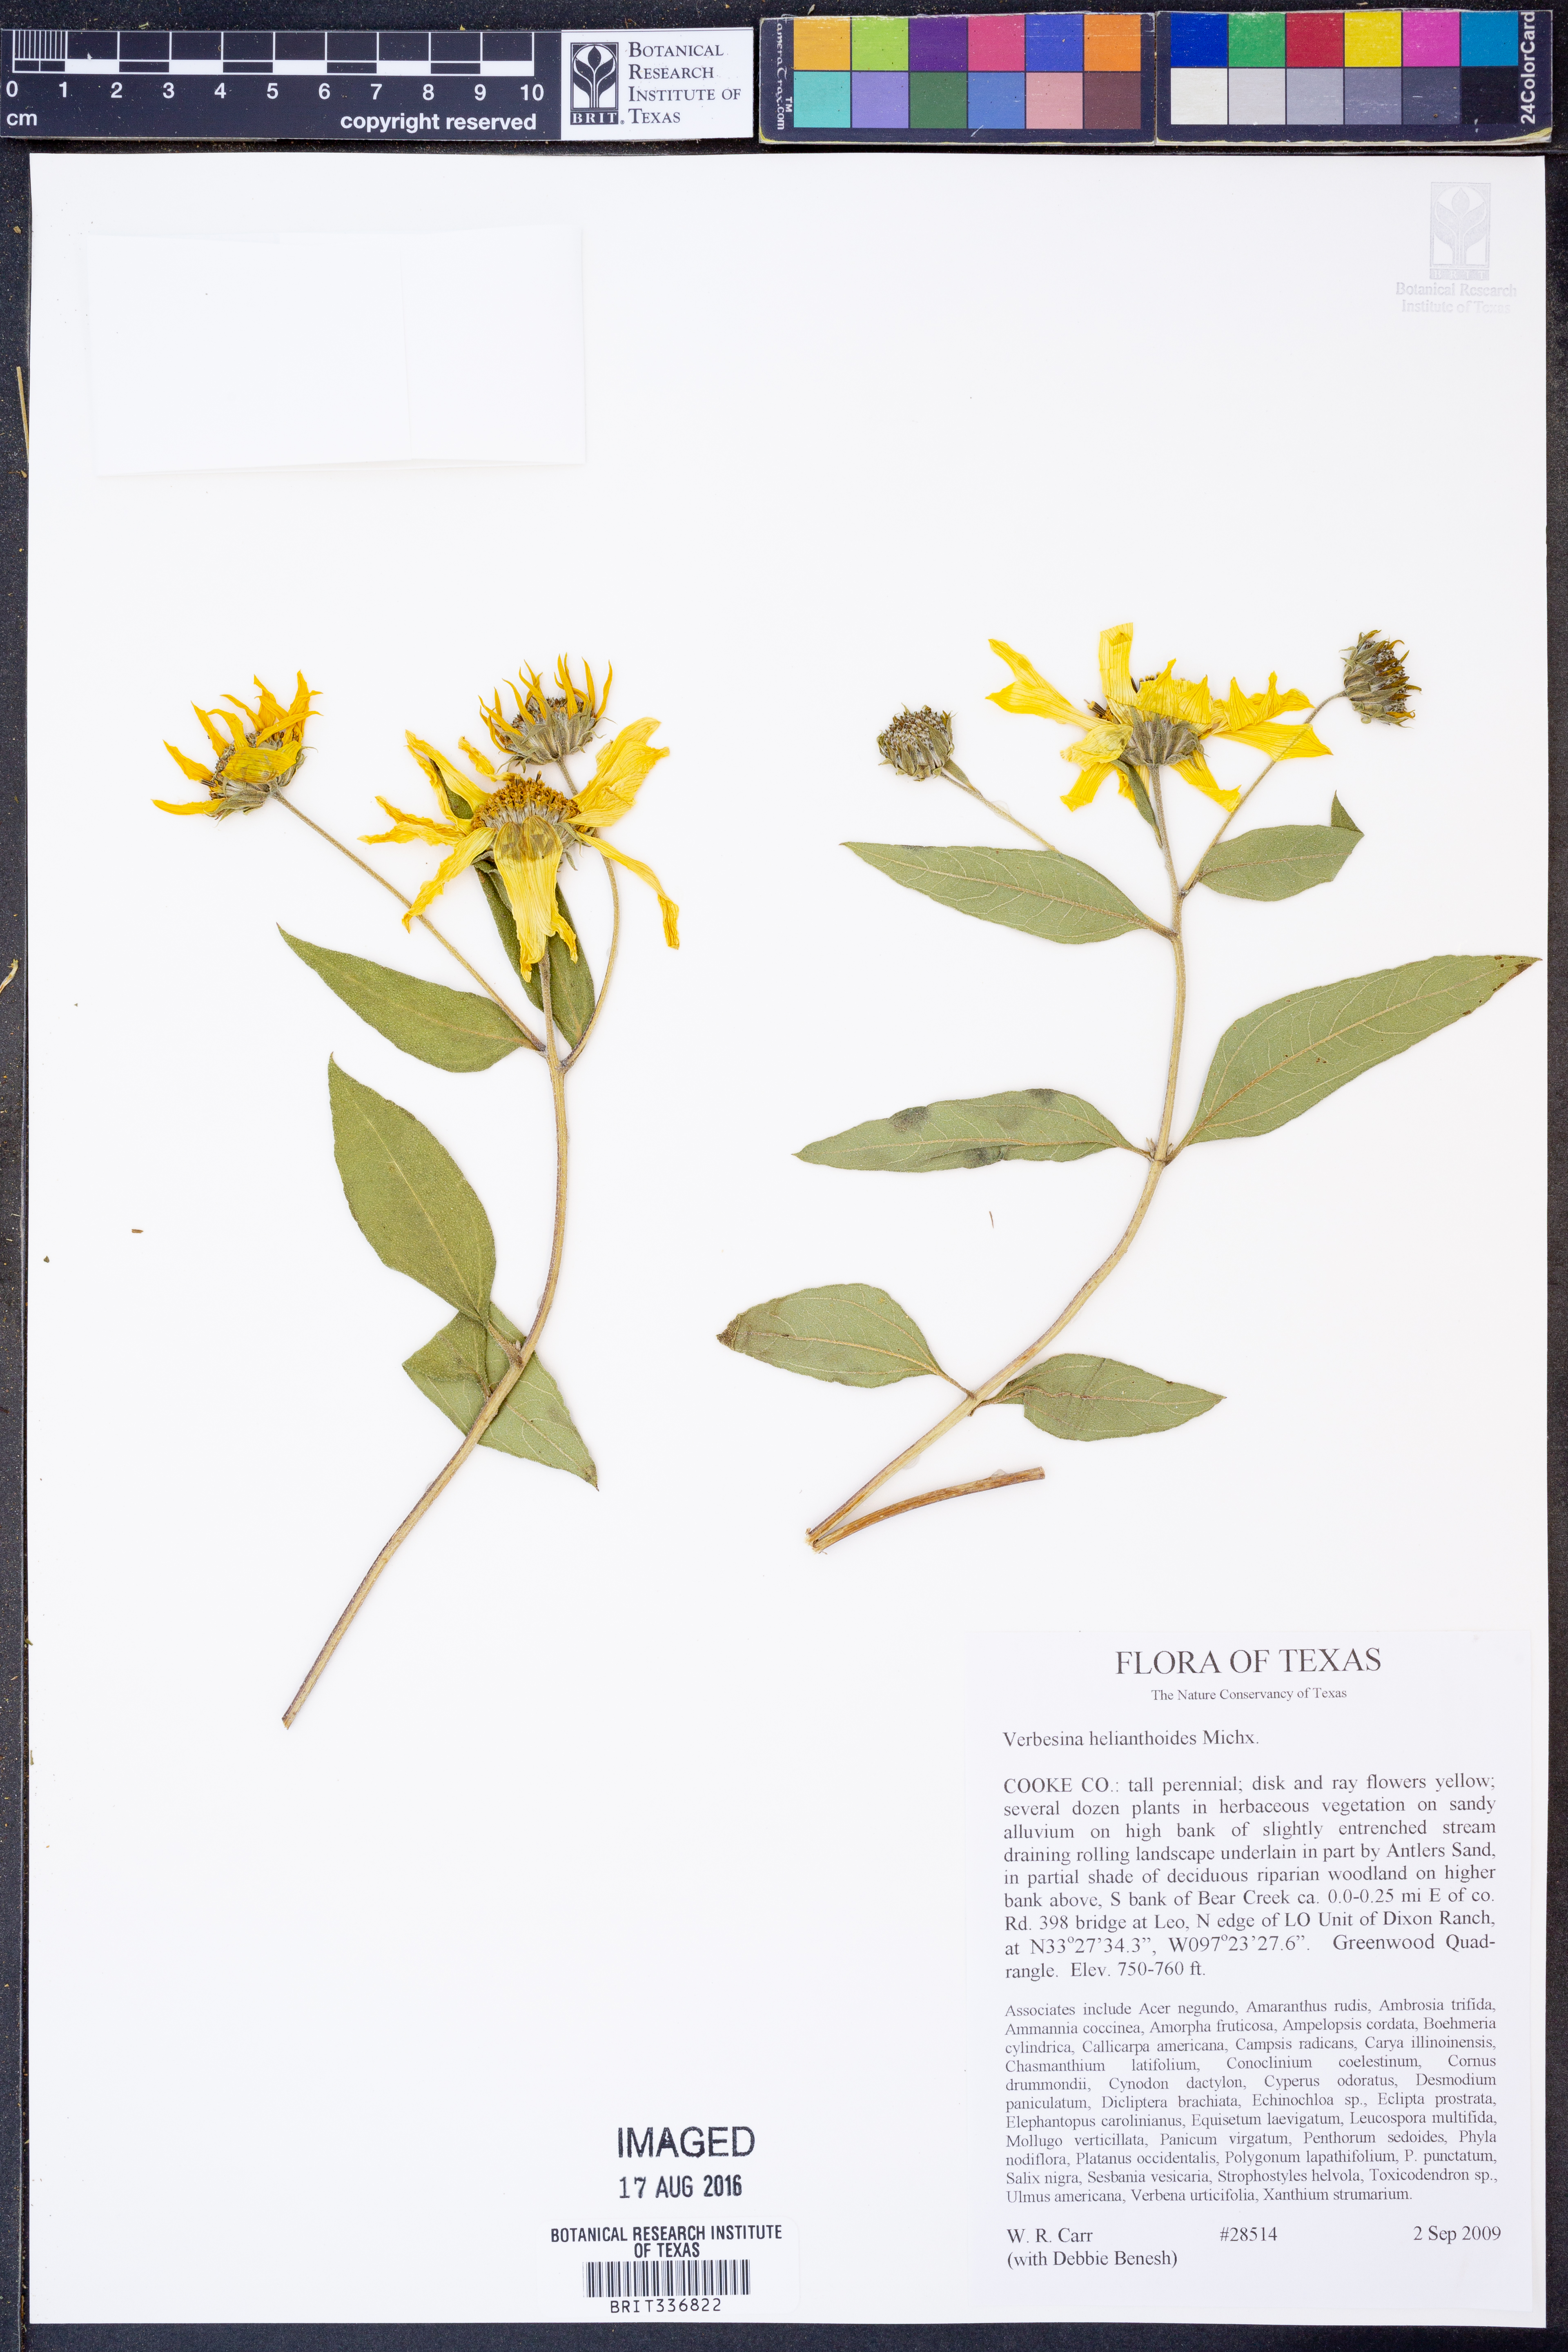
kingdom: Plantae
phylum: Tracheophyta
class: Magnoliopsida
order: Asterales
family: Asteraceae
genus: Verbesina
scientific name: Verbesina helianthoides
